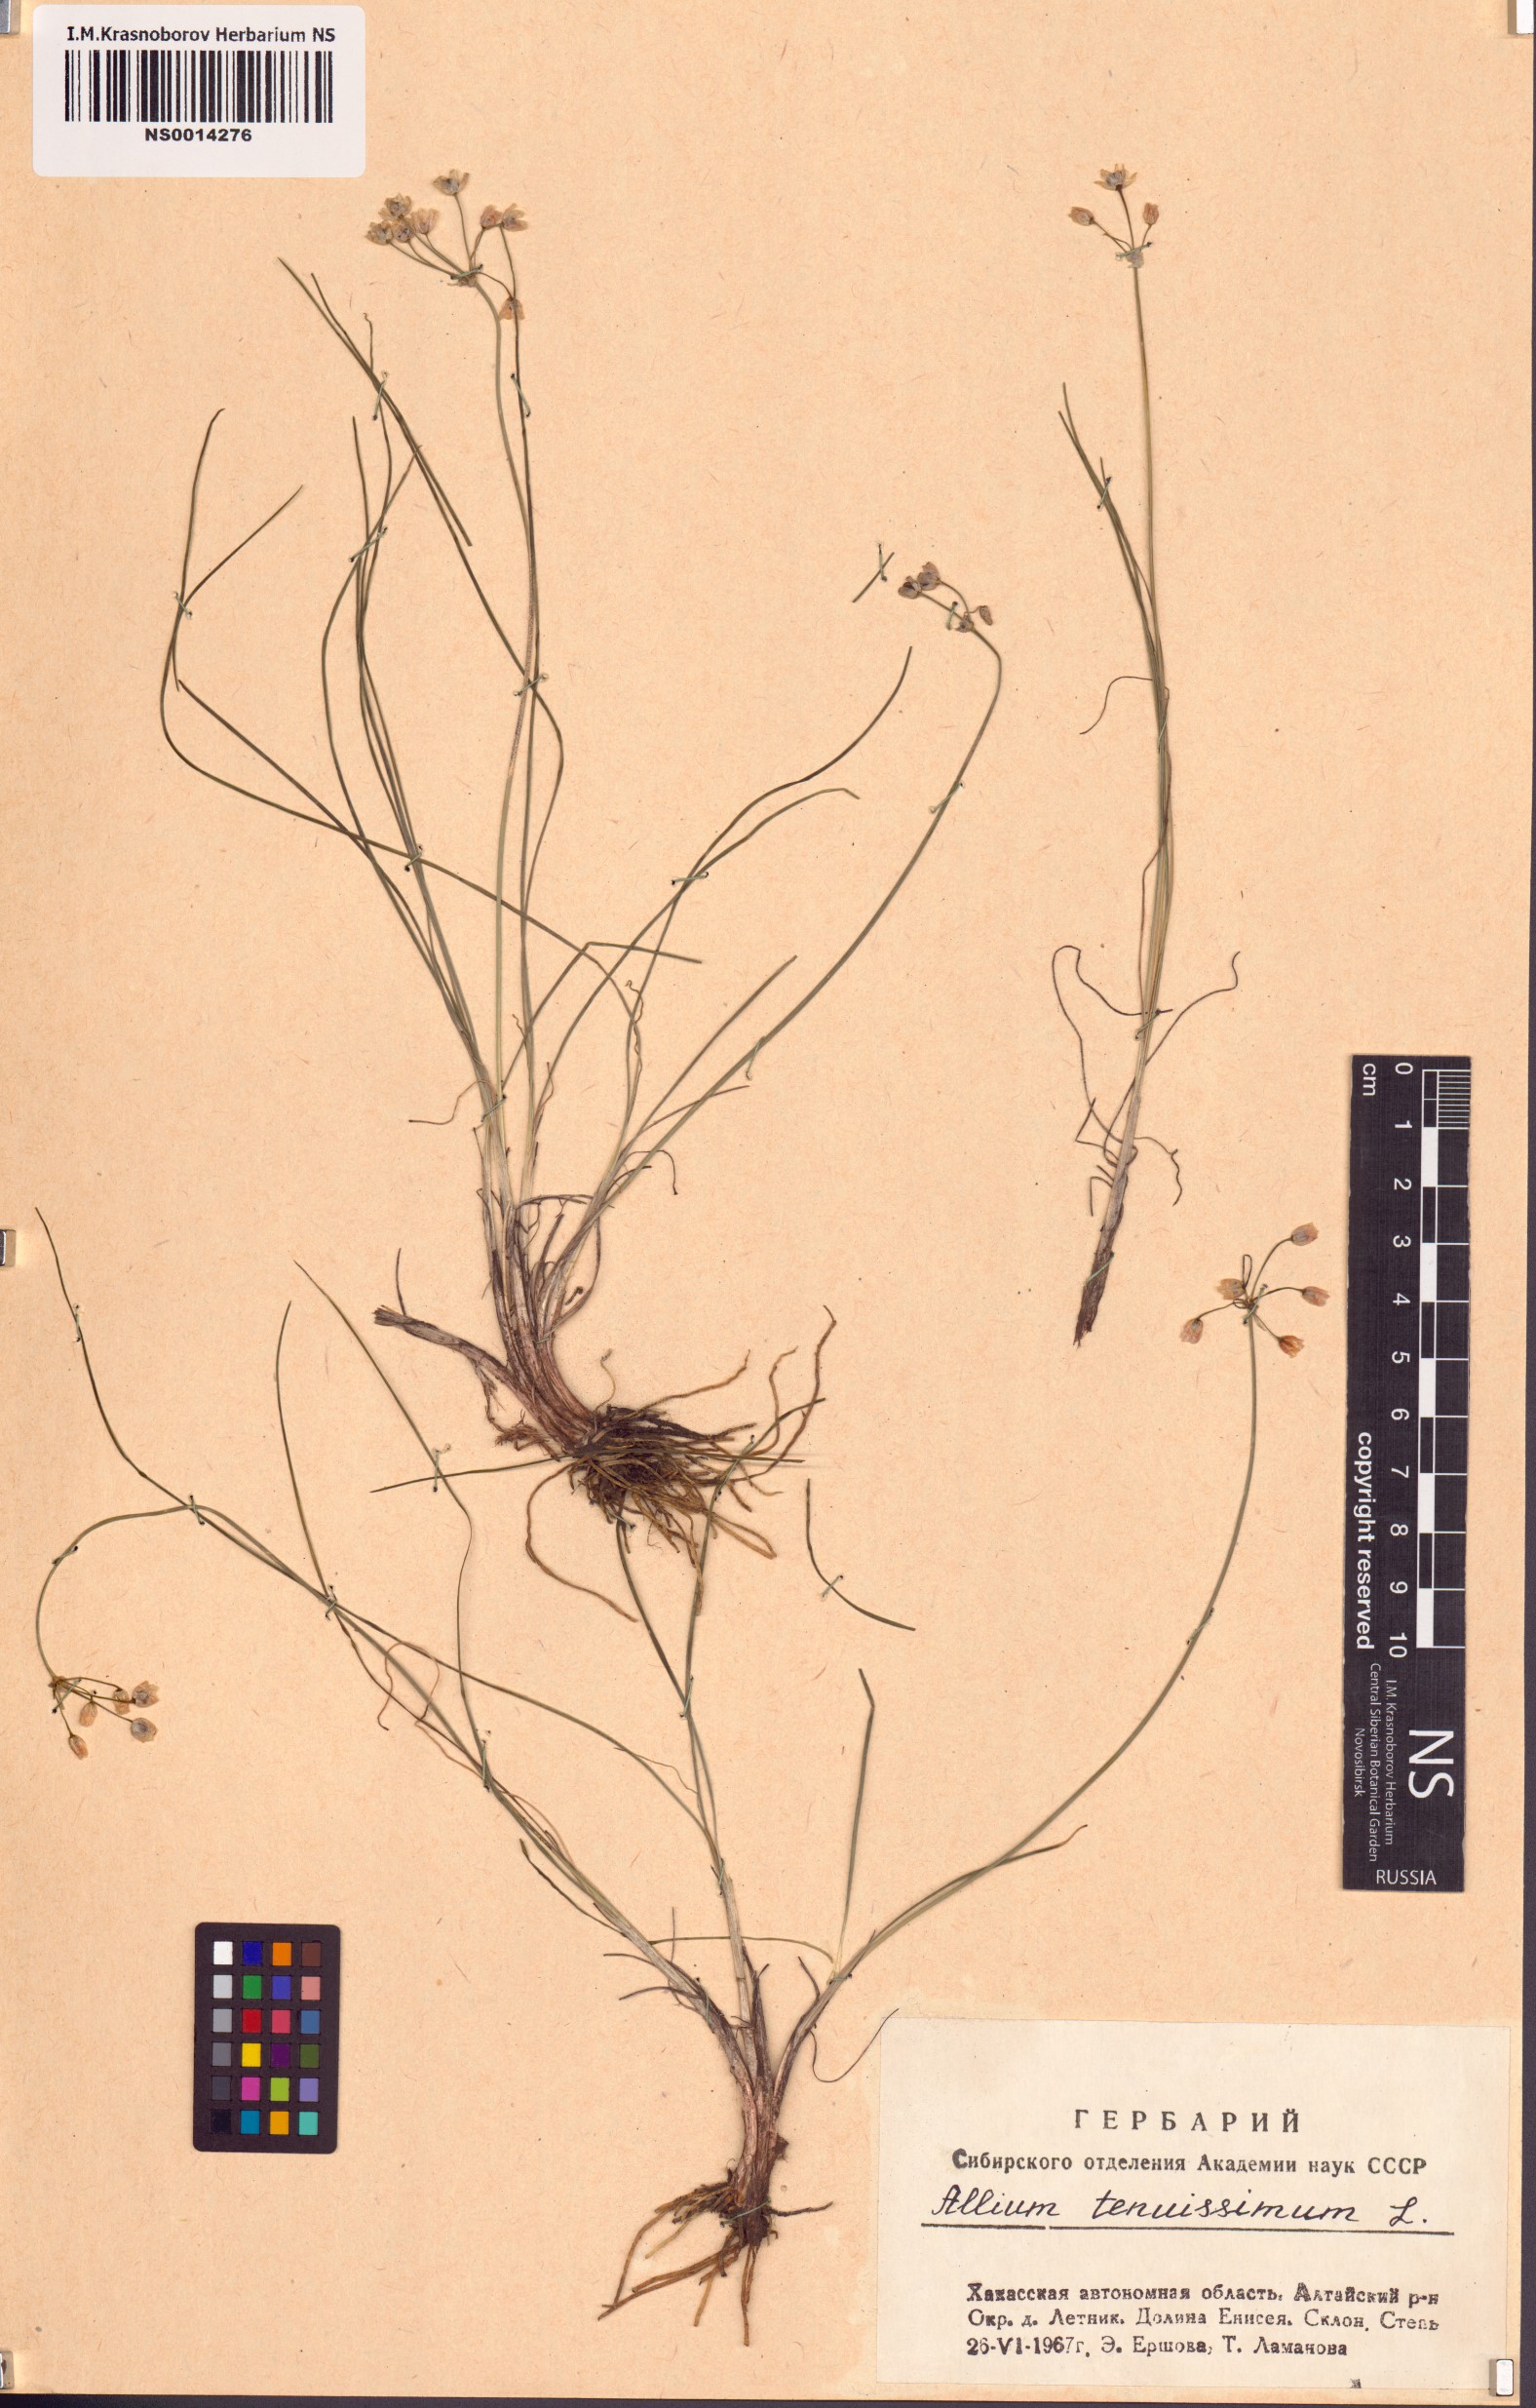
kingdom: Plantae
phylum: Tracheophyta
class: Liliopsida
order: Asparagales
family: Amaryllidaceae
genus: Allium
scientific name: Allium tenuissimum
